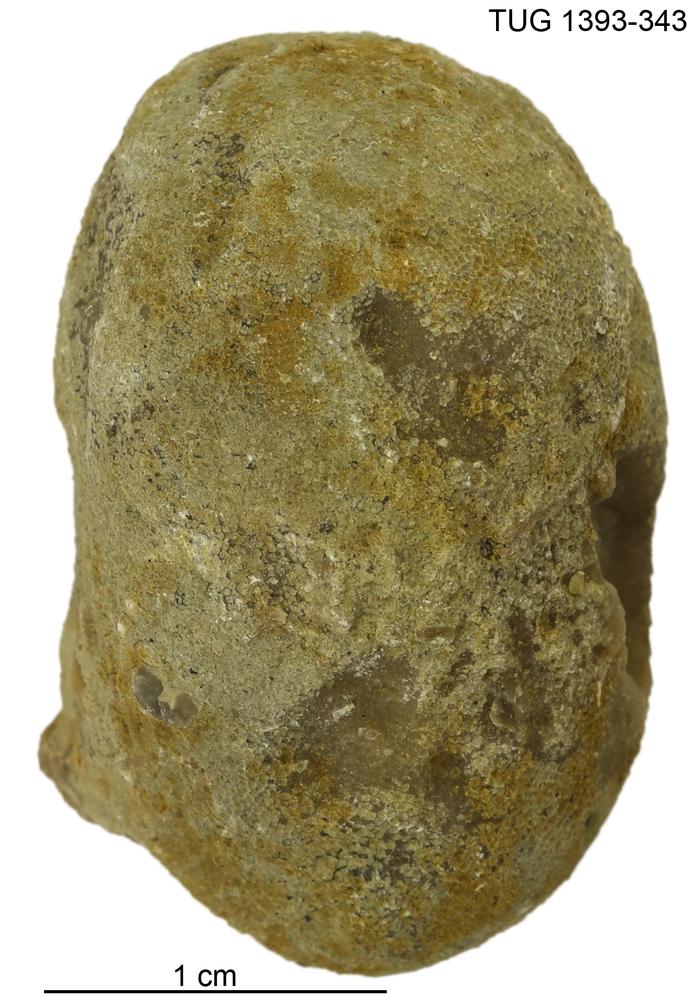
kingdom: Animalia
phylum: Bryozoa
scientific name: Bryozoa
